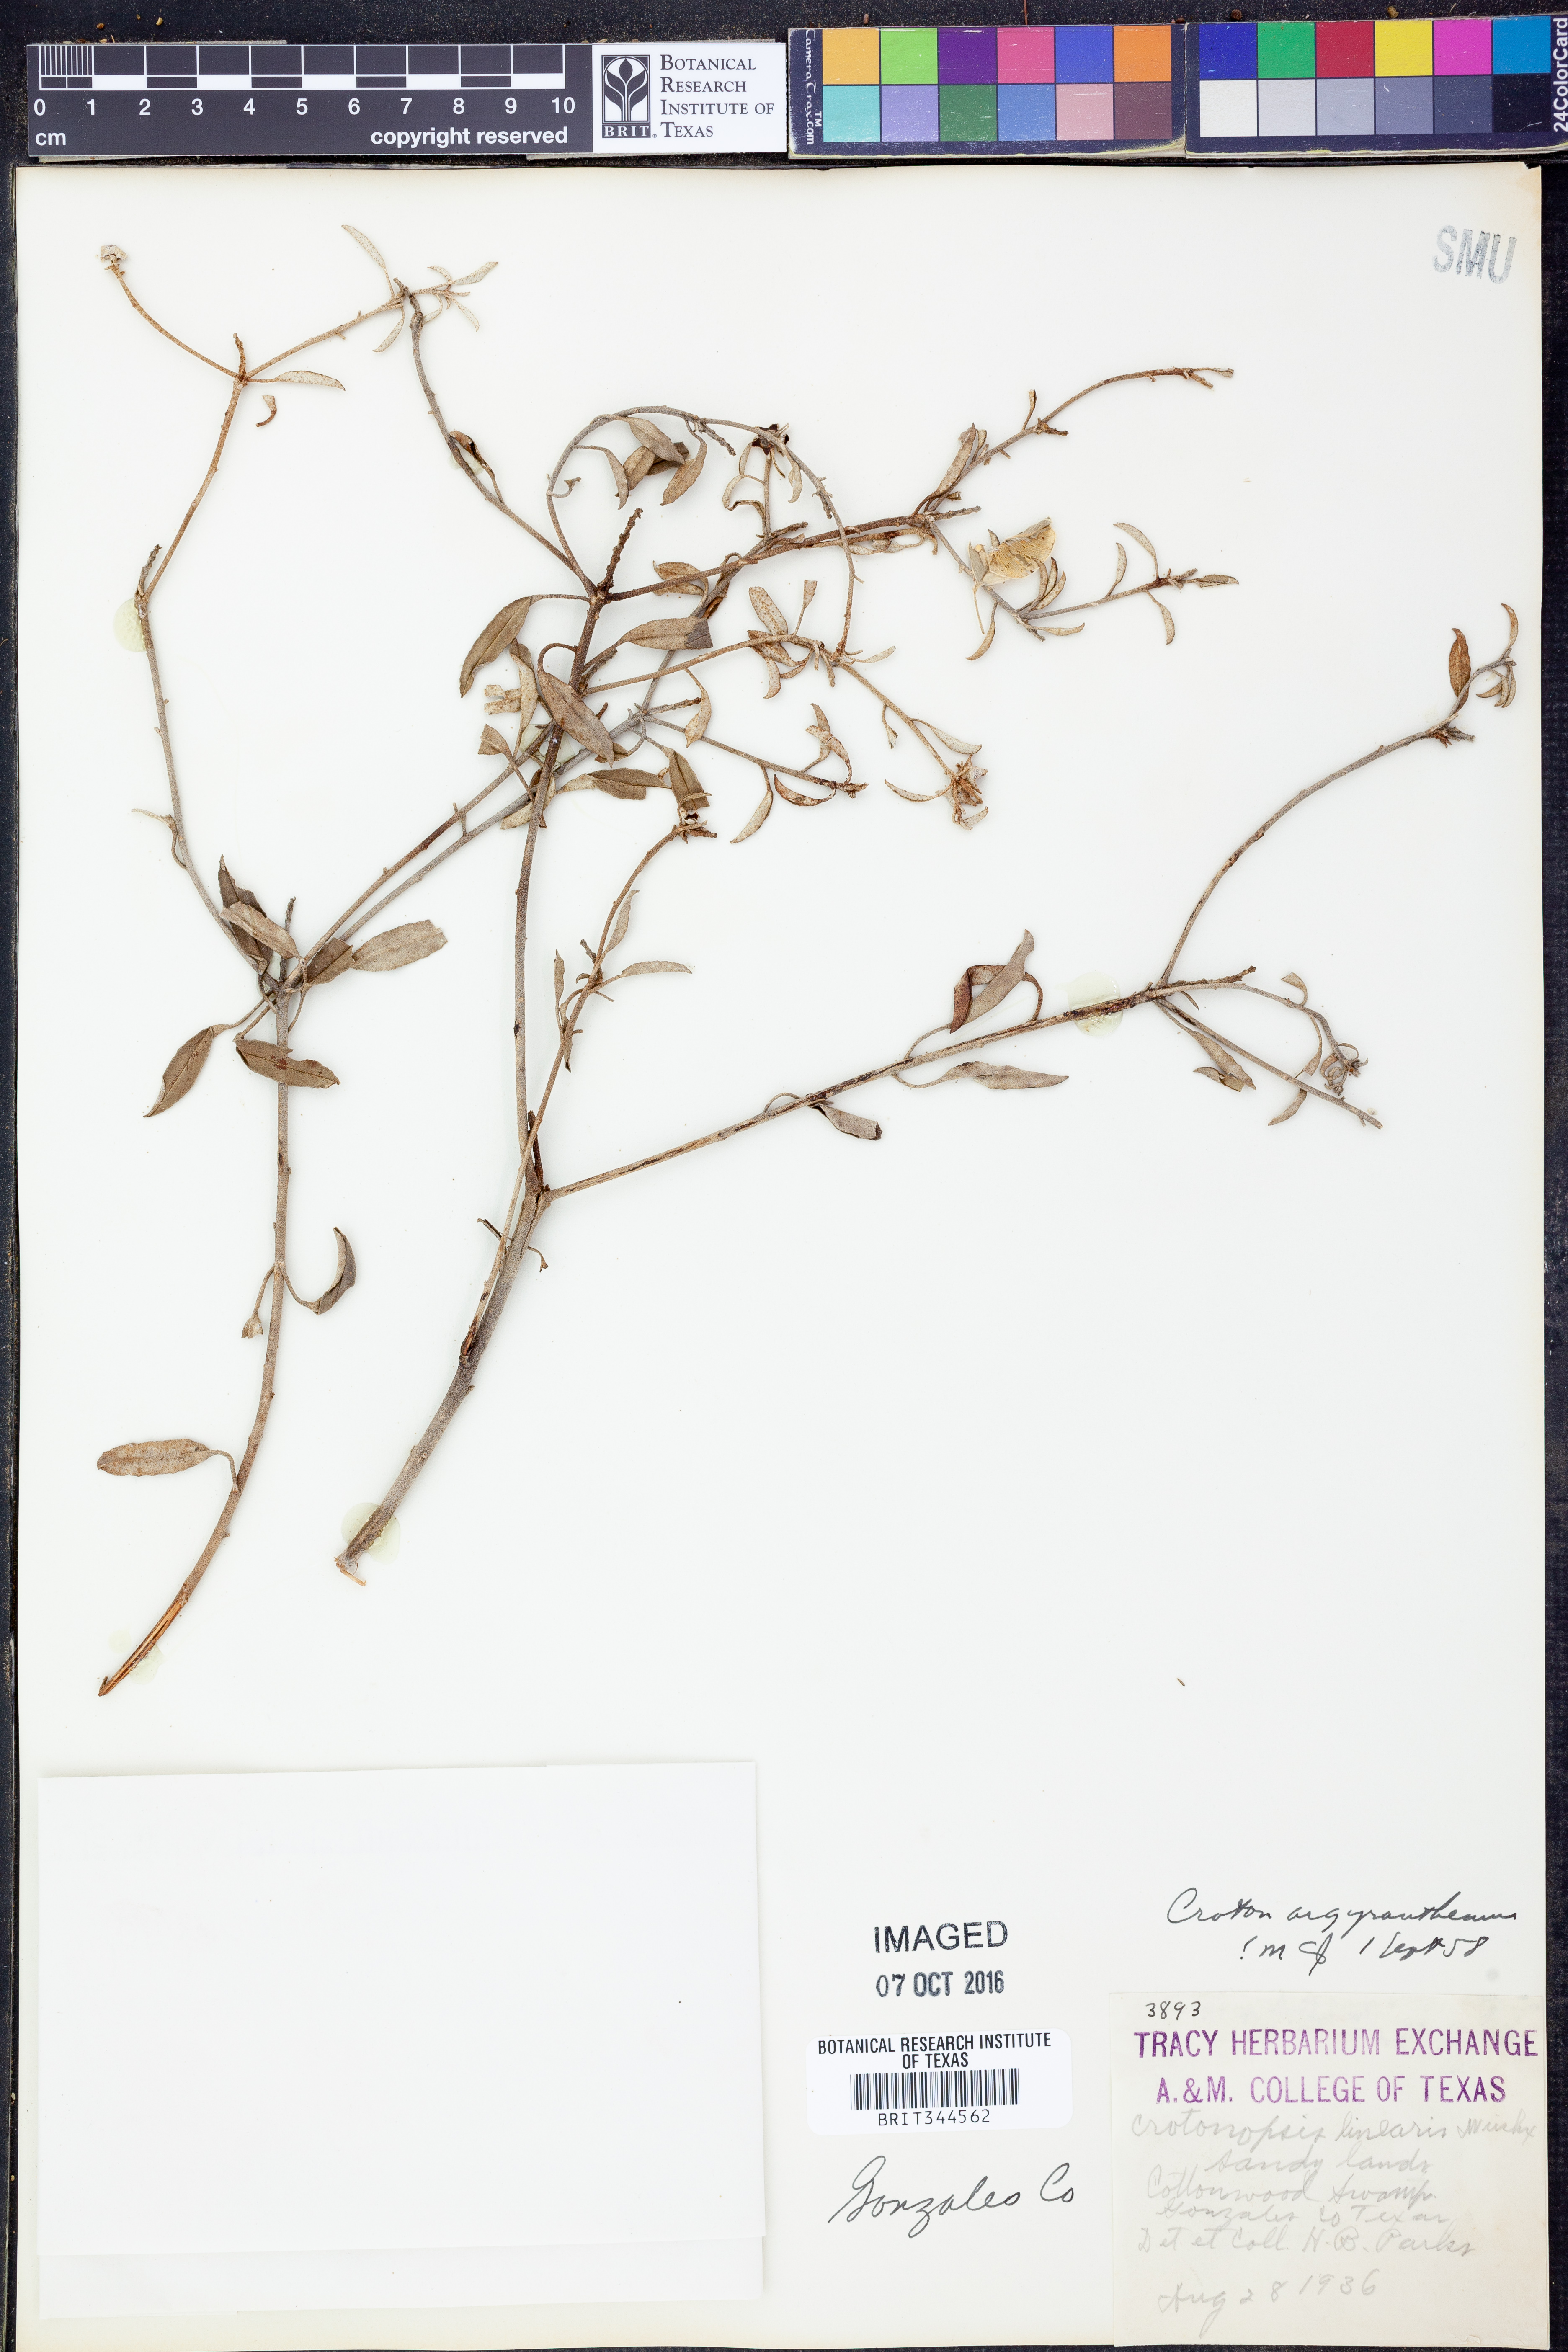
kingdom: Plantae
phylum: Tracheophyta
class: Magnoliopsida
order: Malpighiales
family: Euphorbiaceae
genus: Croton
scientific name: Croton argyranthemus
